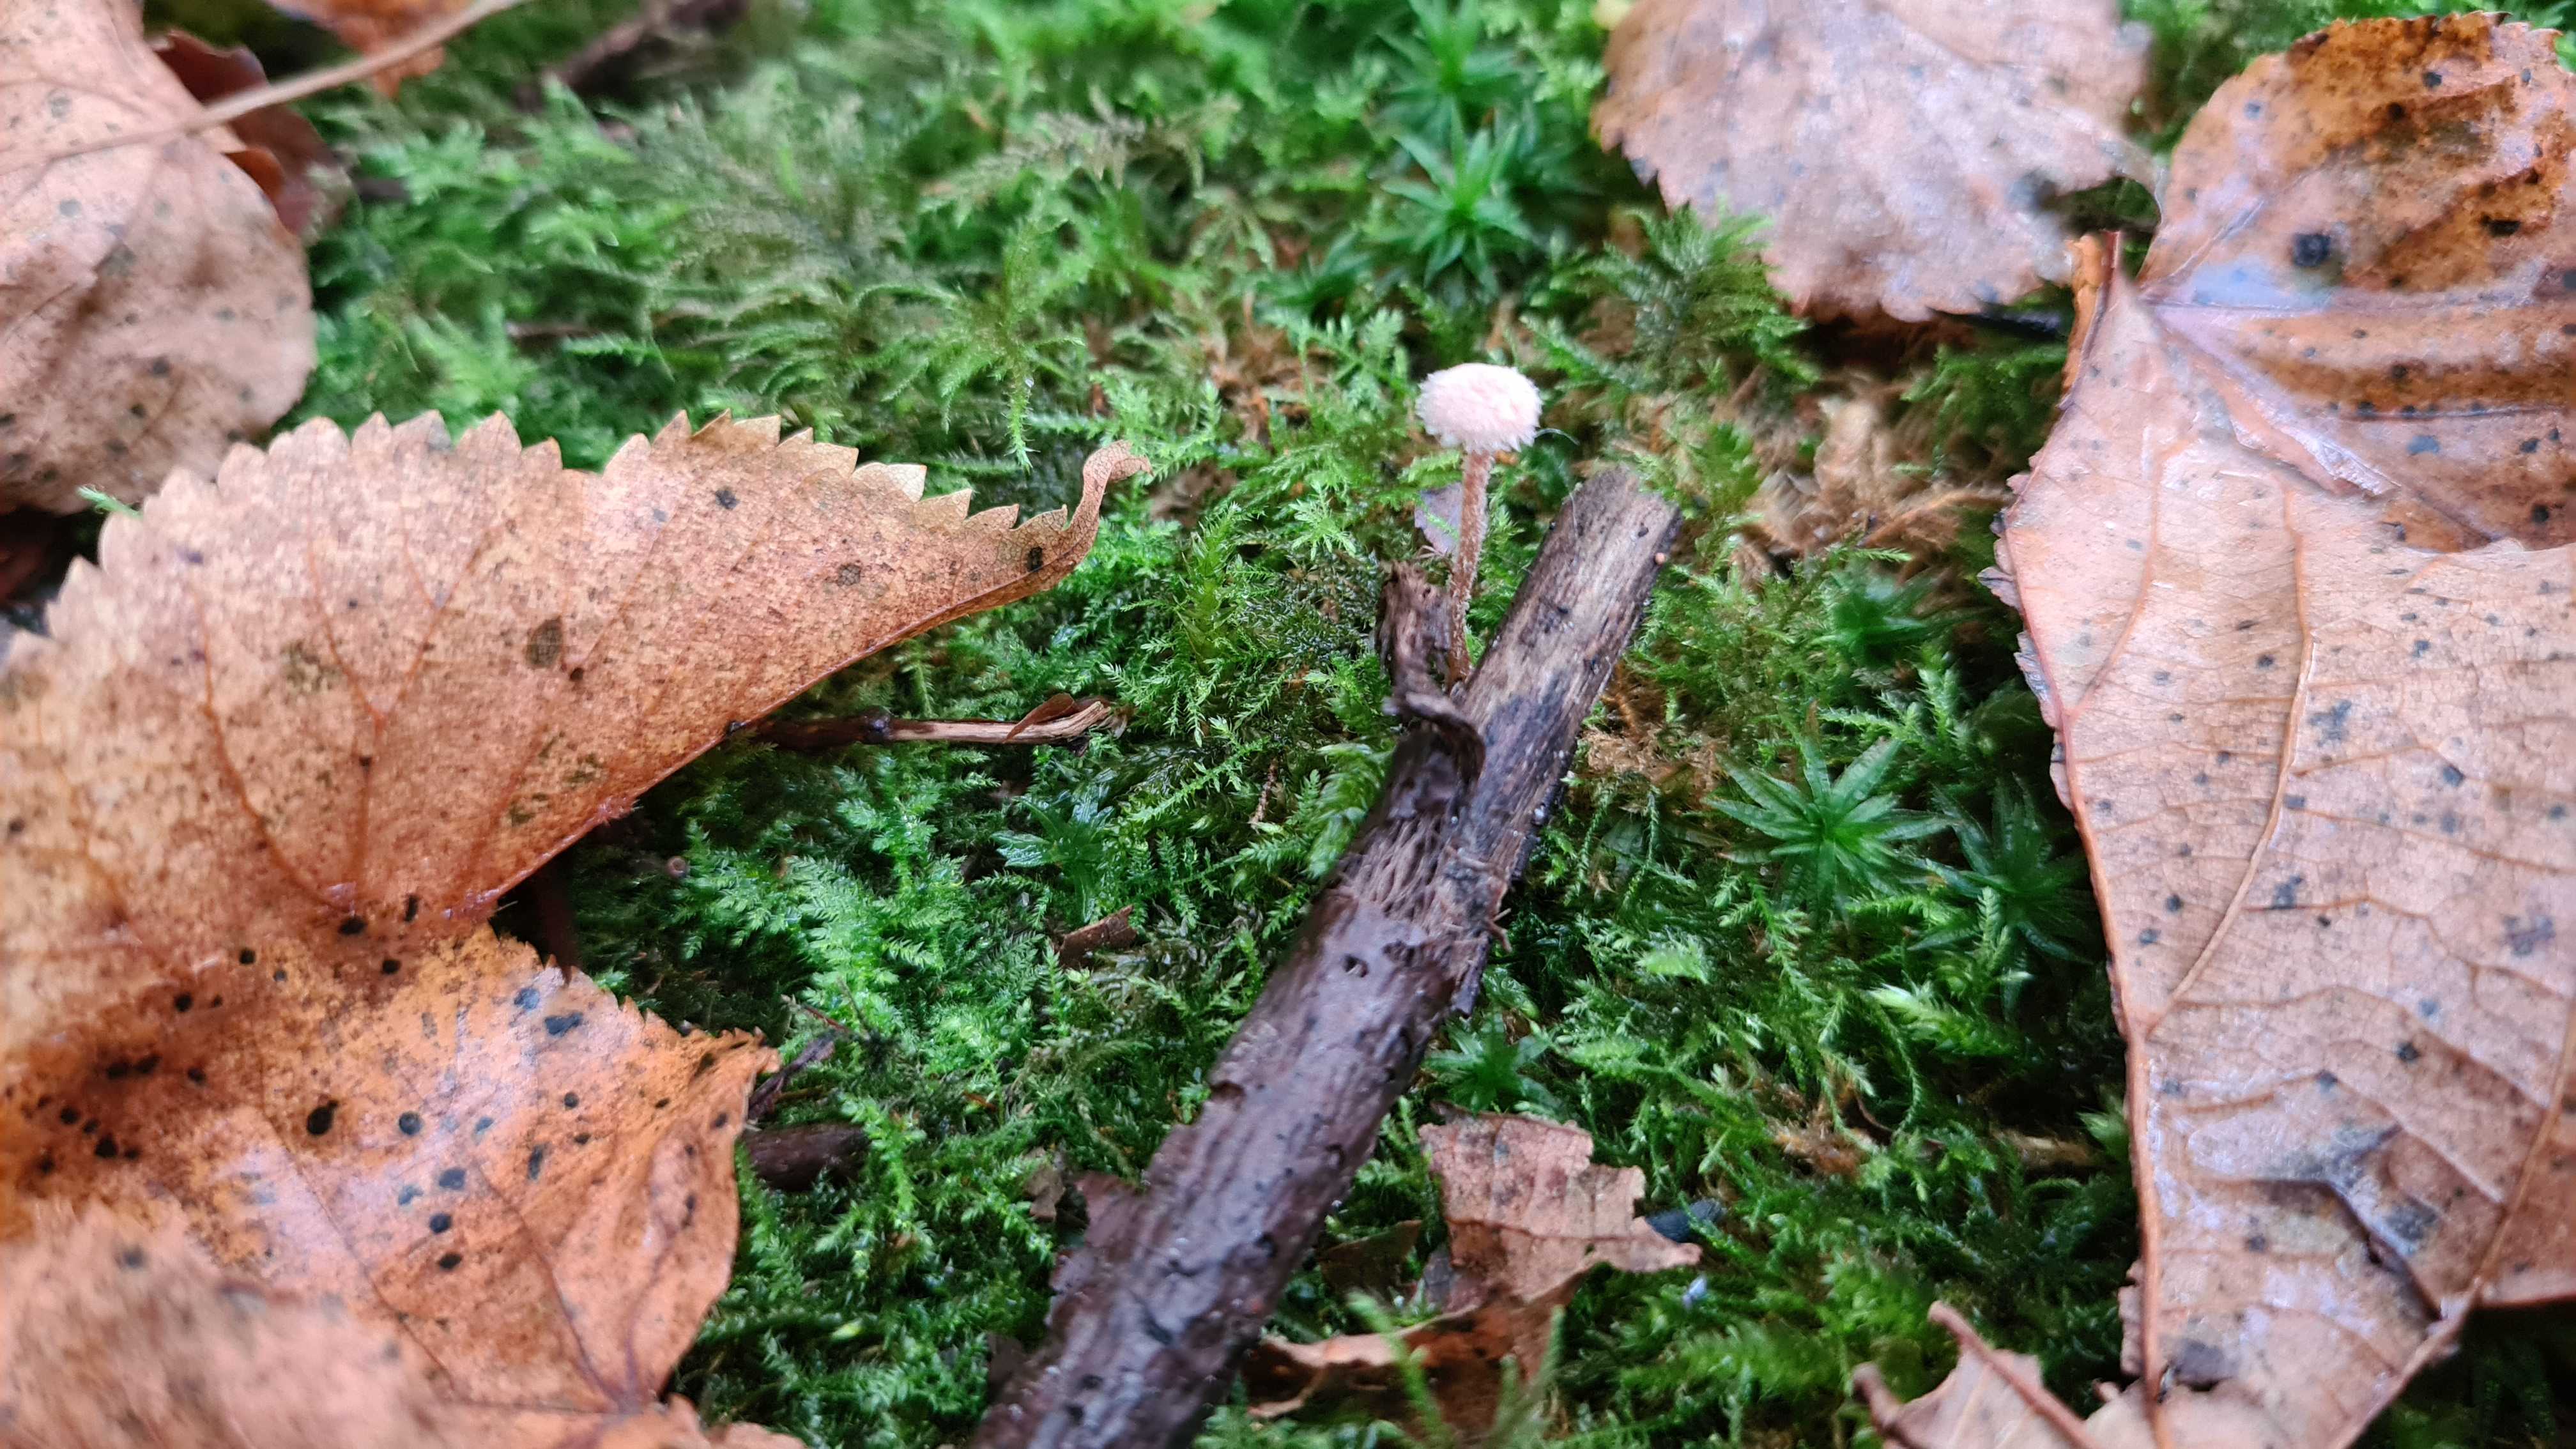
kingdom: Fungi
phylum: Basidiomycota
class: Agaricomycetes
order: Agaricales
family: Tubariaceae
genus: Flammulaster
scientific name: Flammulaster
